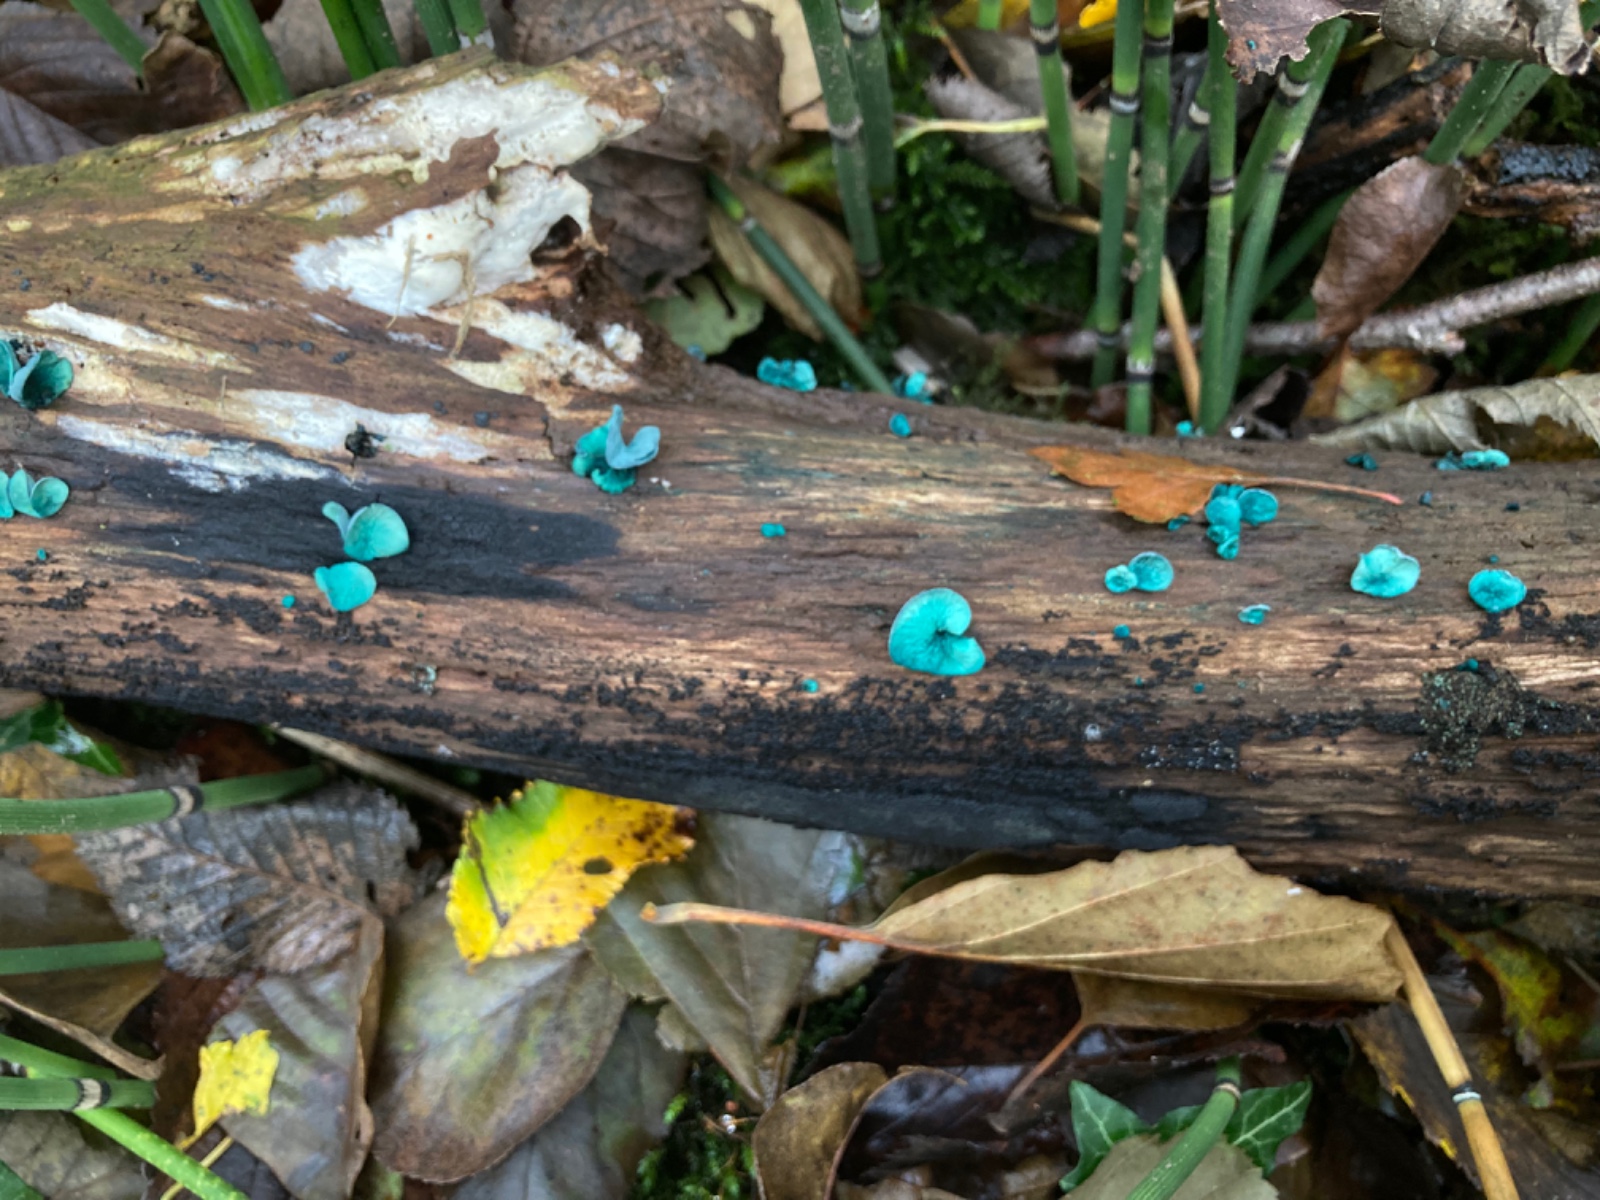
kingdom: Fungi
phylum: Ascomycota
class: Leotiomycetes
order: Helotiales
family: Chlorociboriaceae
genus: Chlorociboria
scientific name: Chlorociboria aeruginascens
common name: almindelig grønskive
